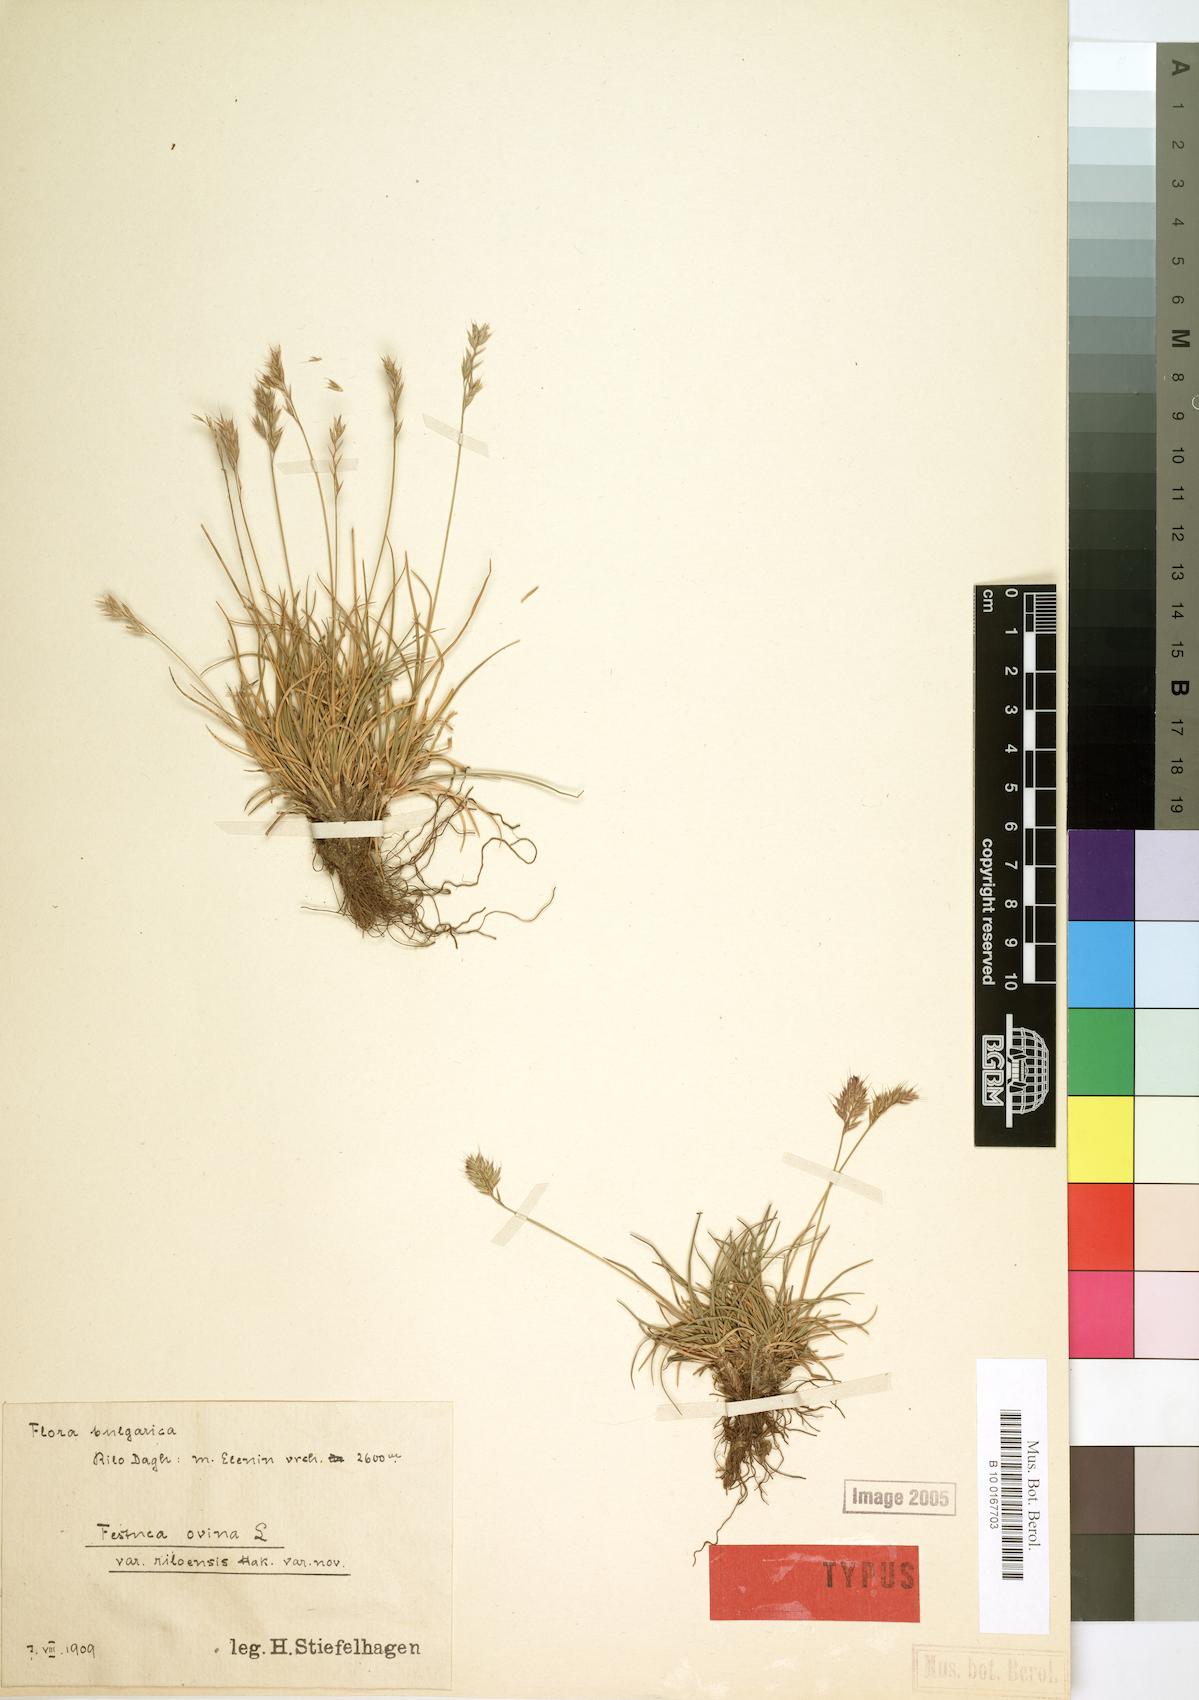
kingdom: Plantae
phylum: Tracheophyta
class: Liliopsida
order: Poales
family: Poaceae
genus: Festuca
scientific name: Festuca riloensis
